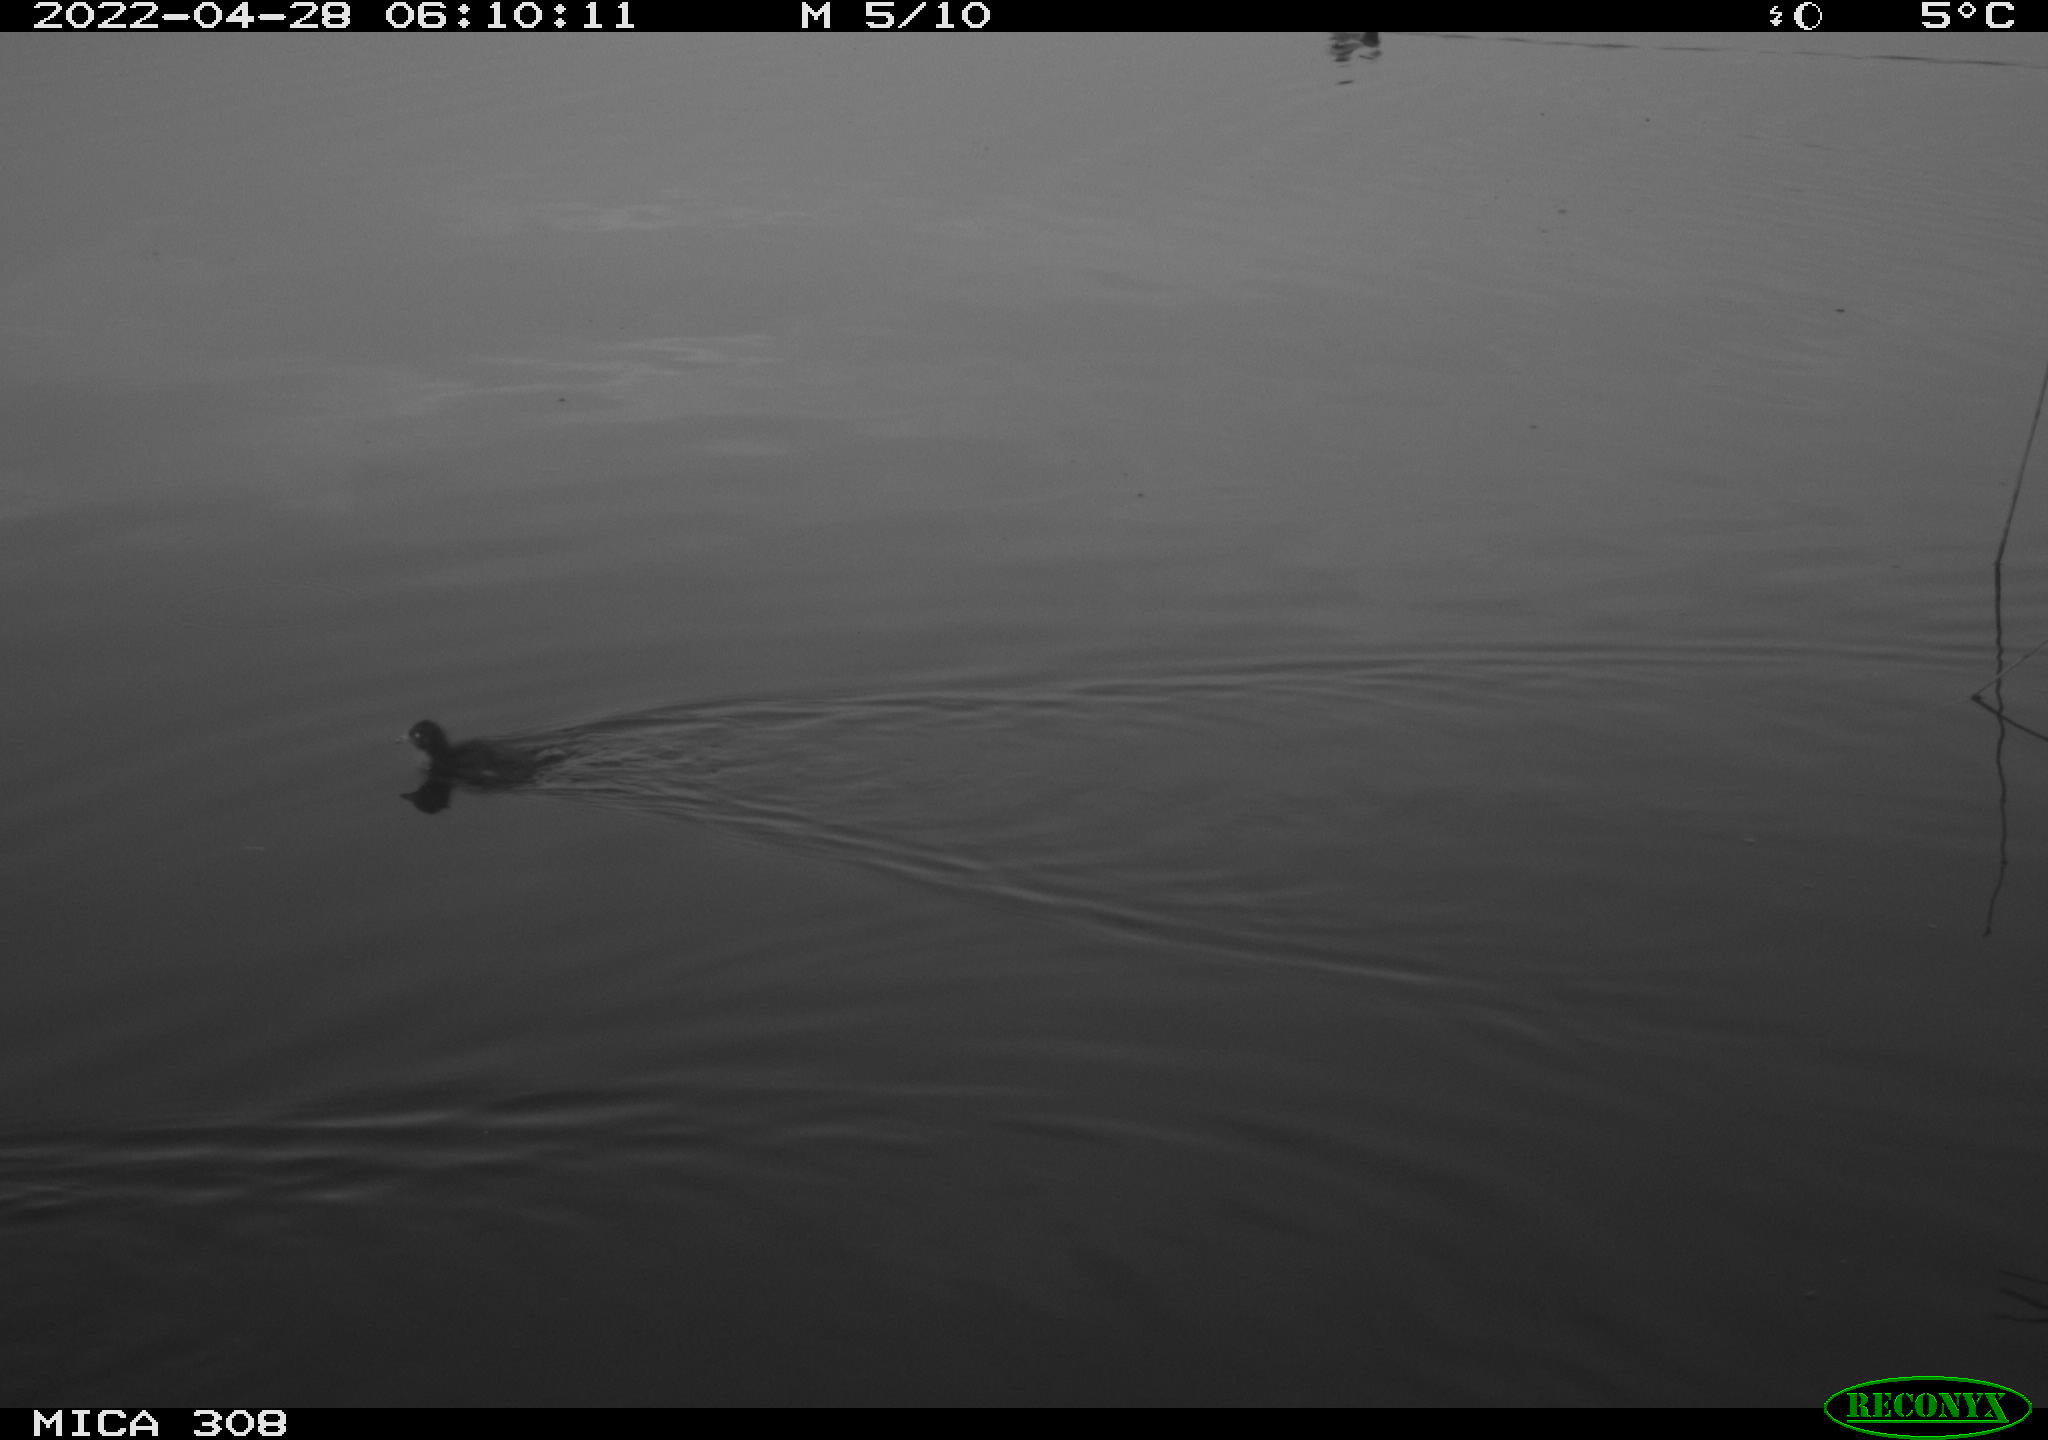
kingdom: Animalia
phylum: Chordata
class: Aves
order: Gruiformes
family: Rallidae
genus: Gallinula
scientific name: Gallinula chloropus
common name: Common moorhen
